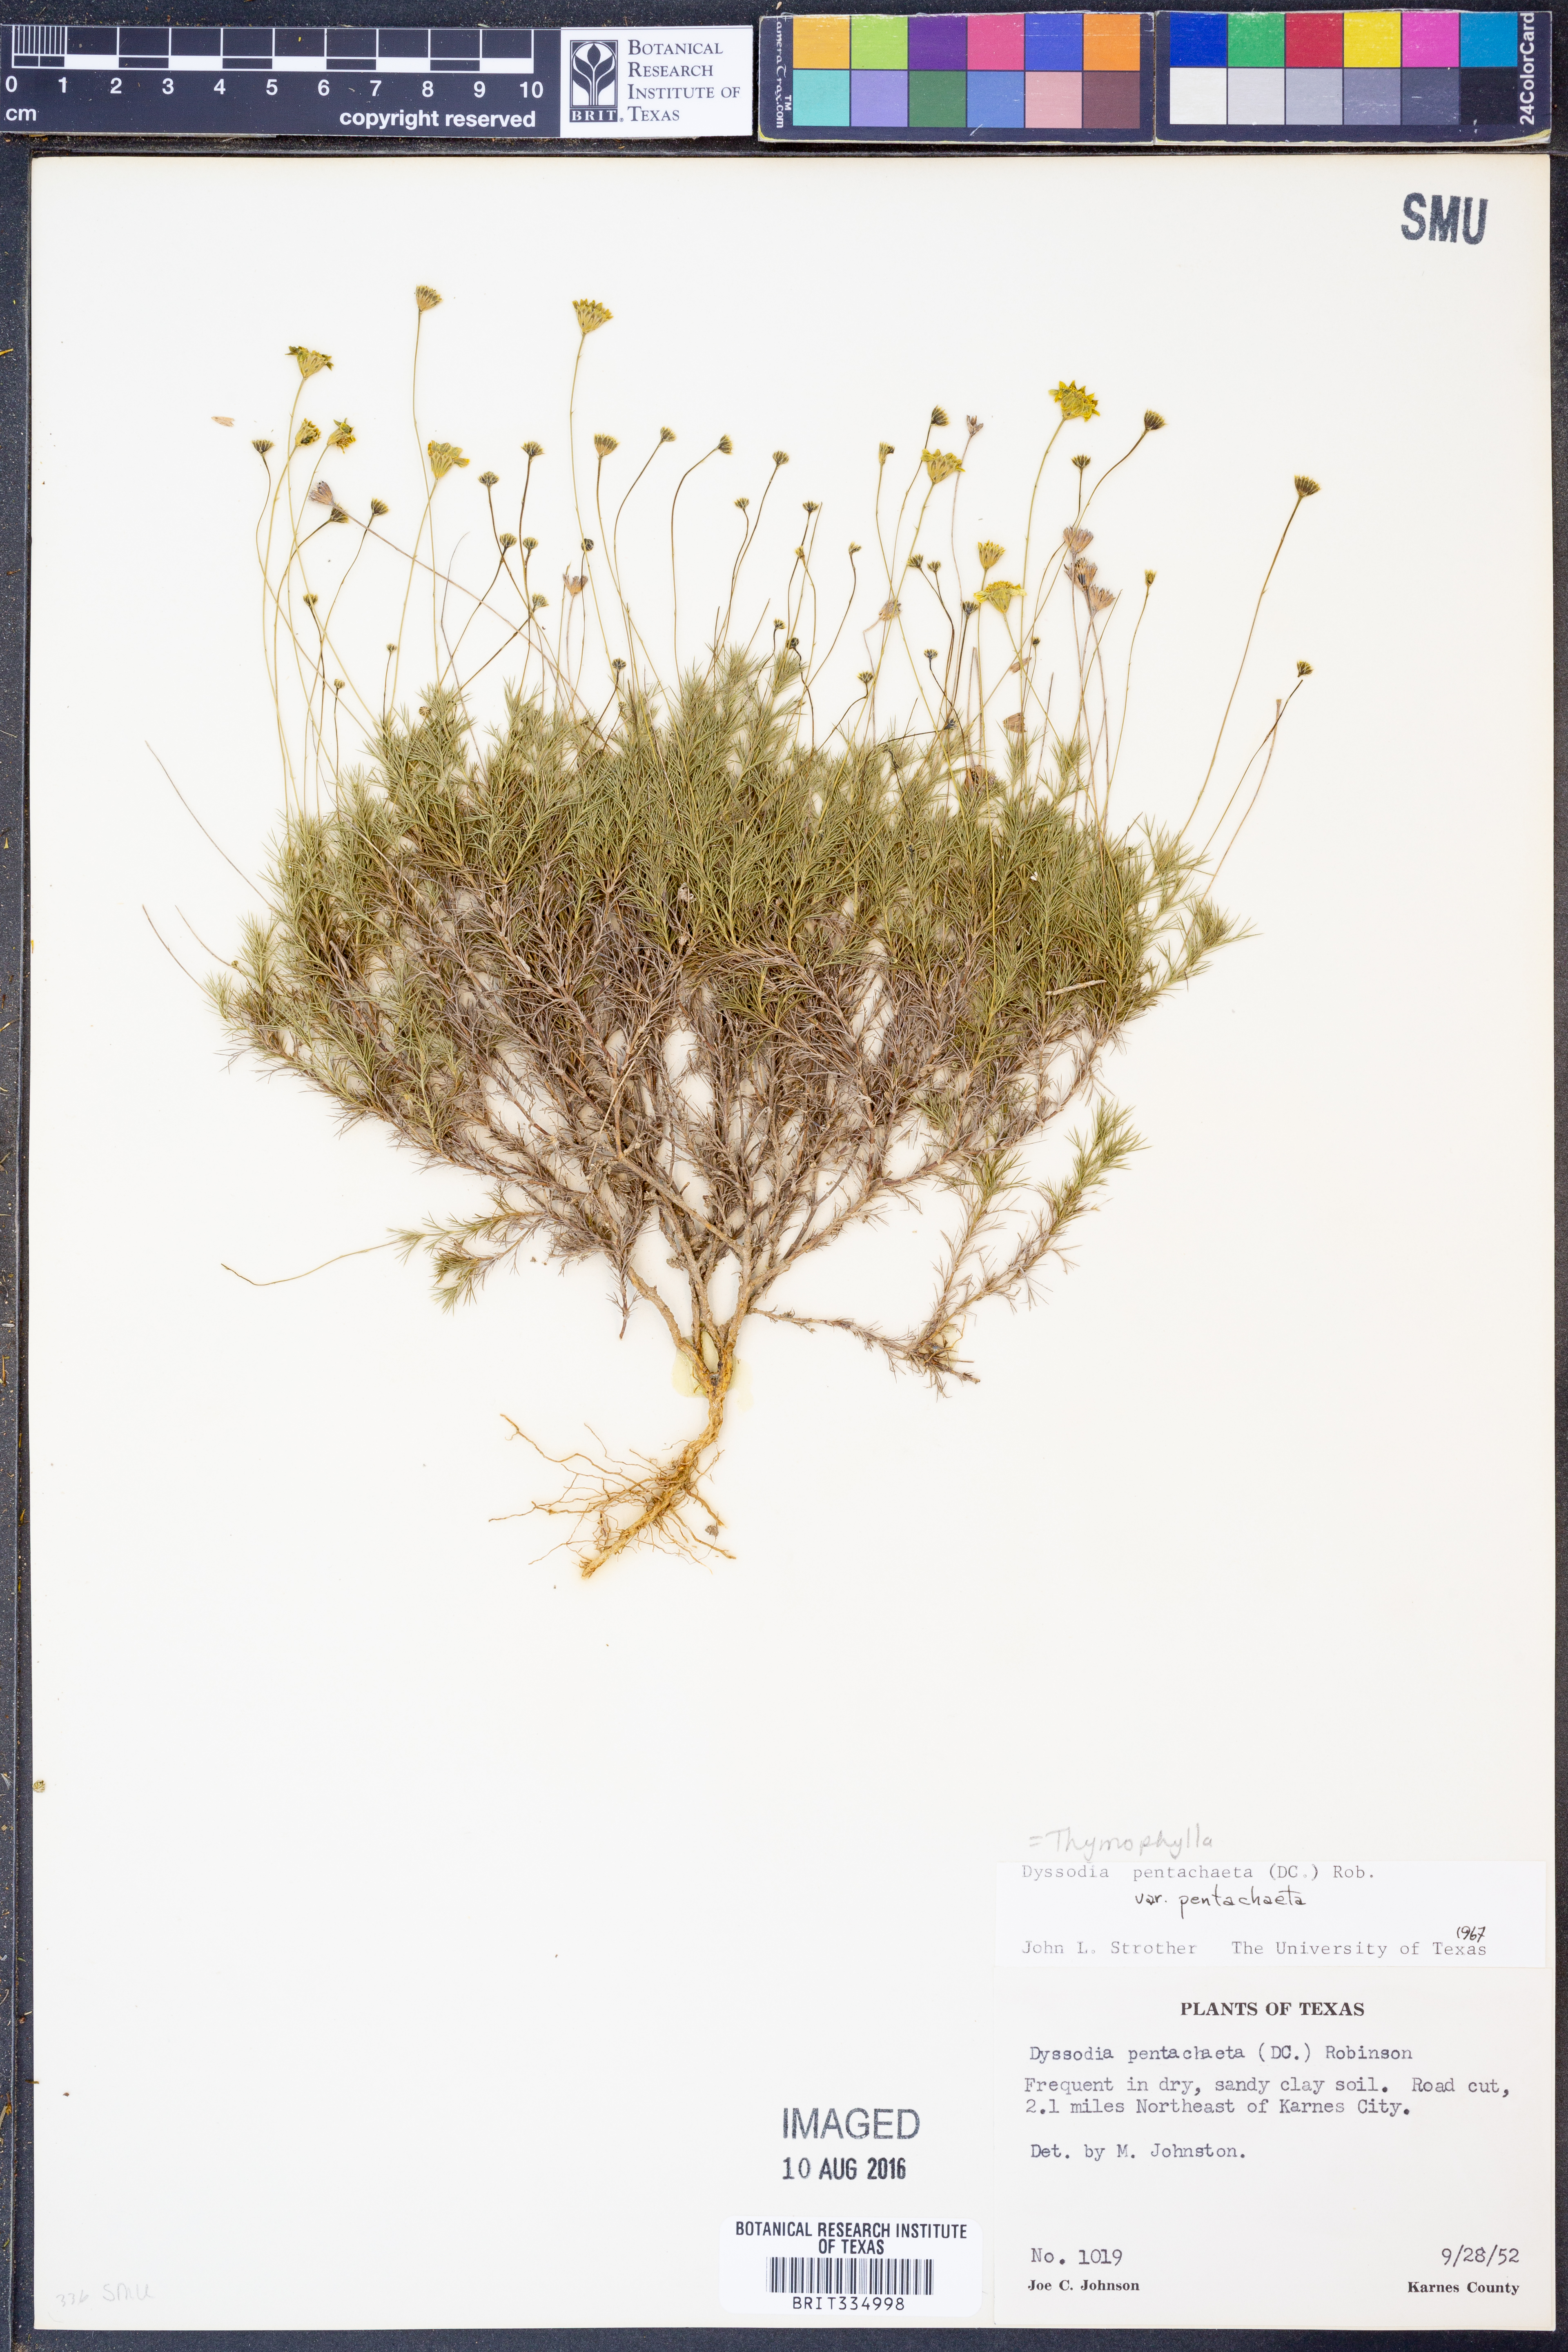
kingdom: Plantae
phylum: Tracheophyta
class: Magnoliopsida
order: Asterales
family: Asteraceae
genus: Thymophylla
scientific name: Thymophylla pentachaeta
